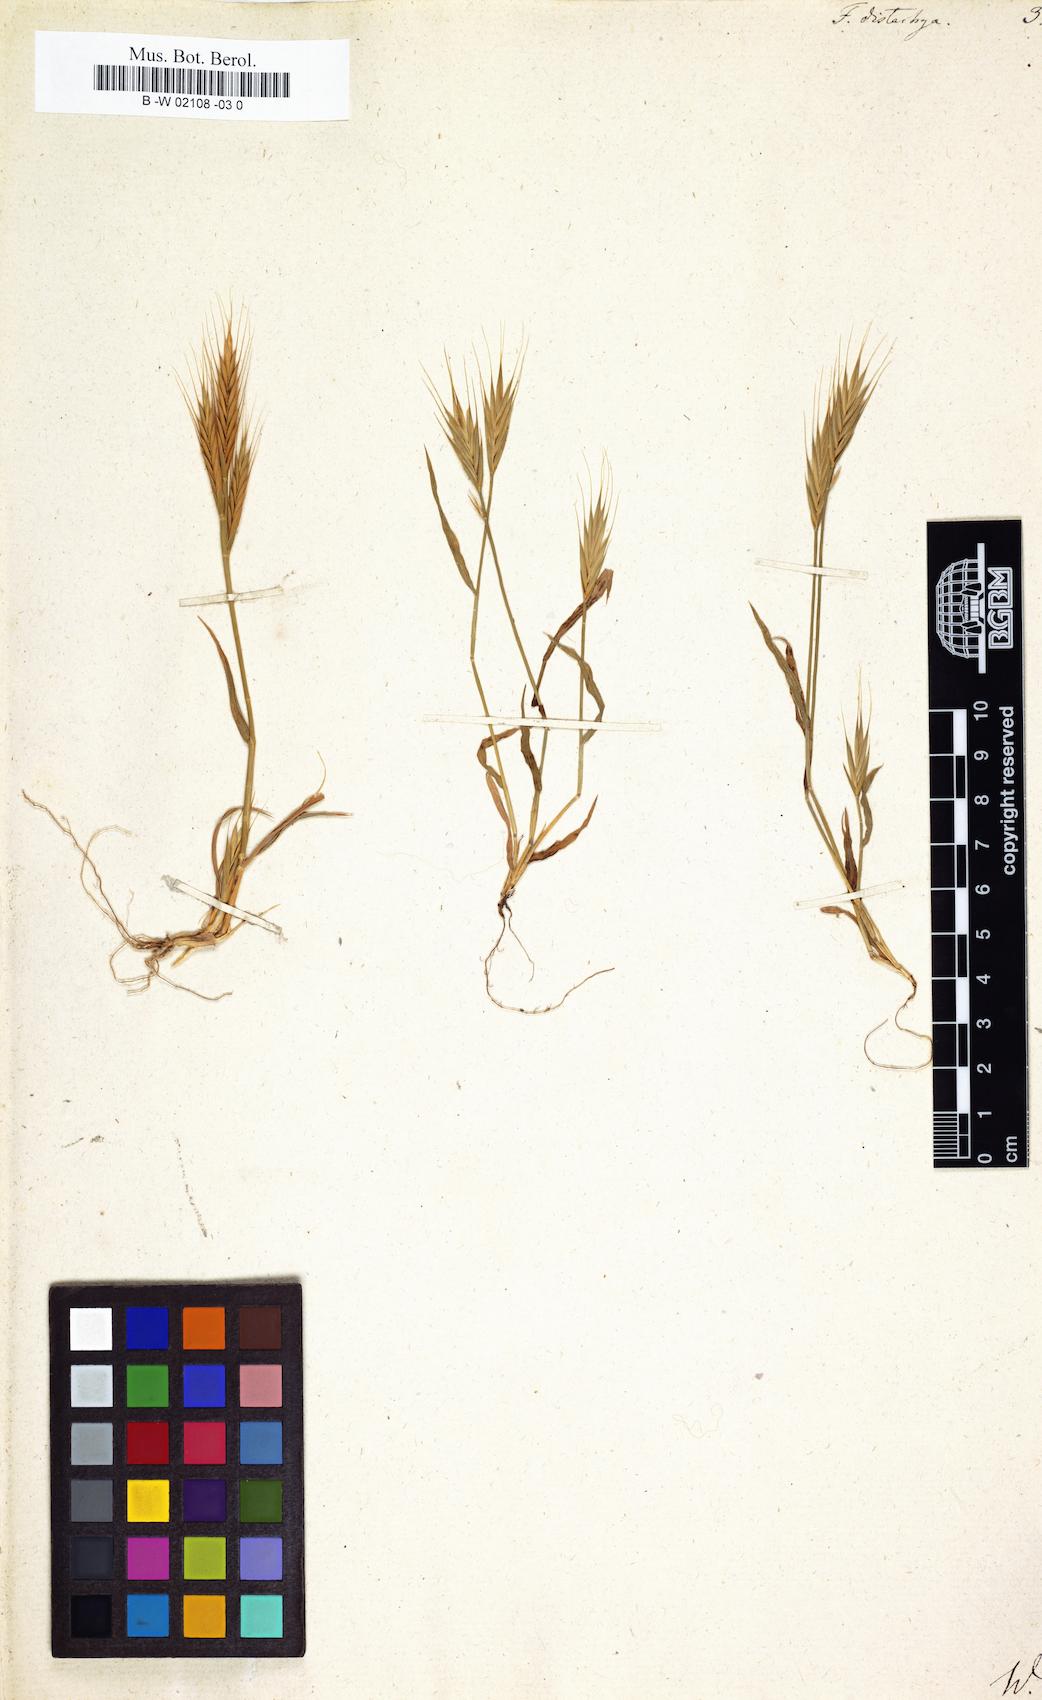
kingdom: Plantae
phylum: Tracheophyta
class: Liliopsida
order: Poales
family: Poaceae
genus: Brachypodium
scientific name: Brachypodium distachyon
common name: Stiff brome
